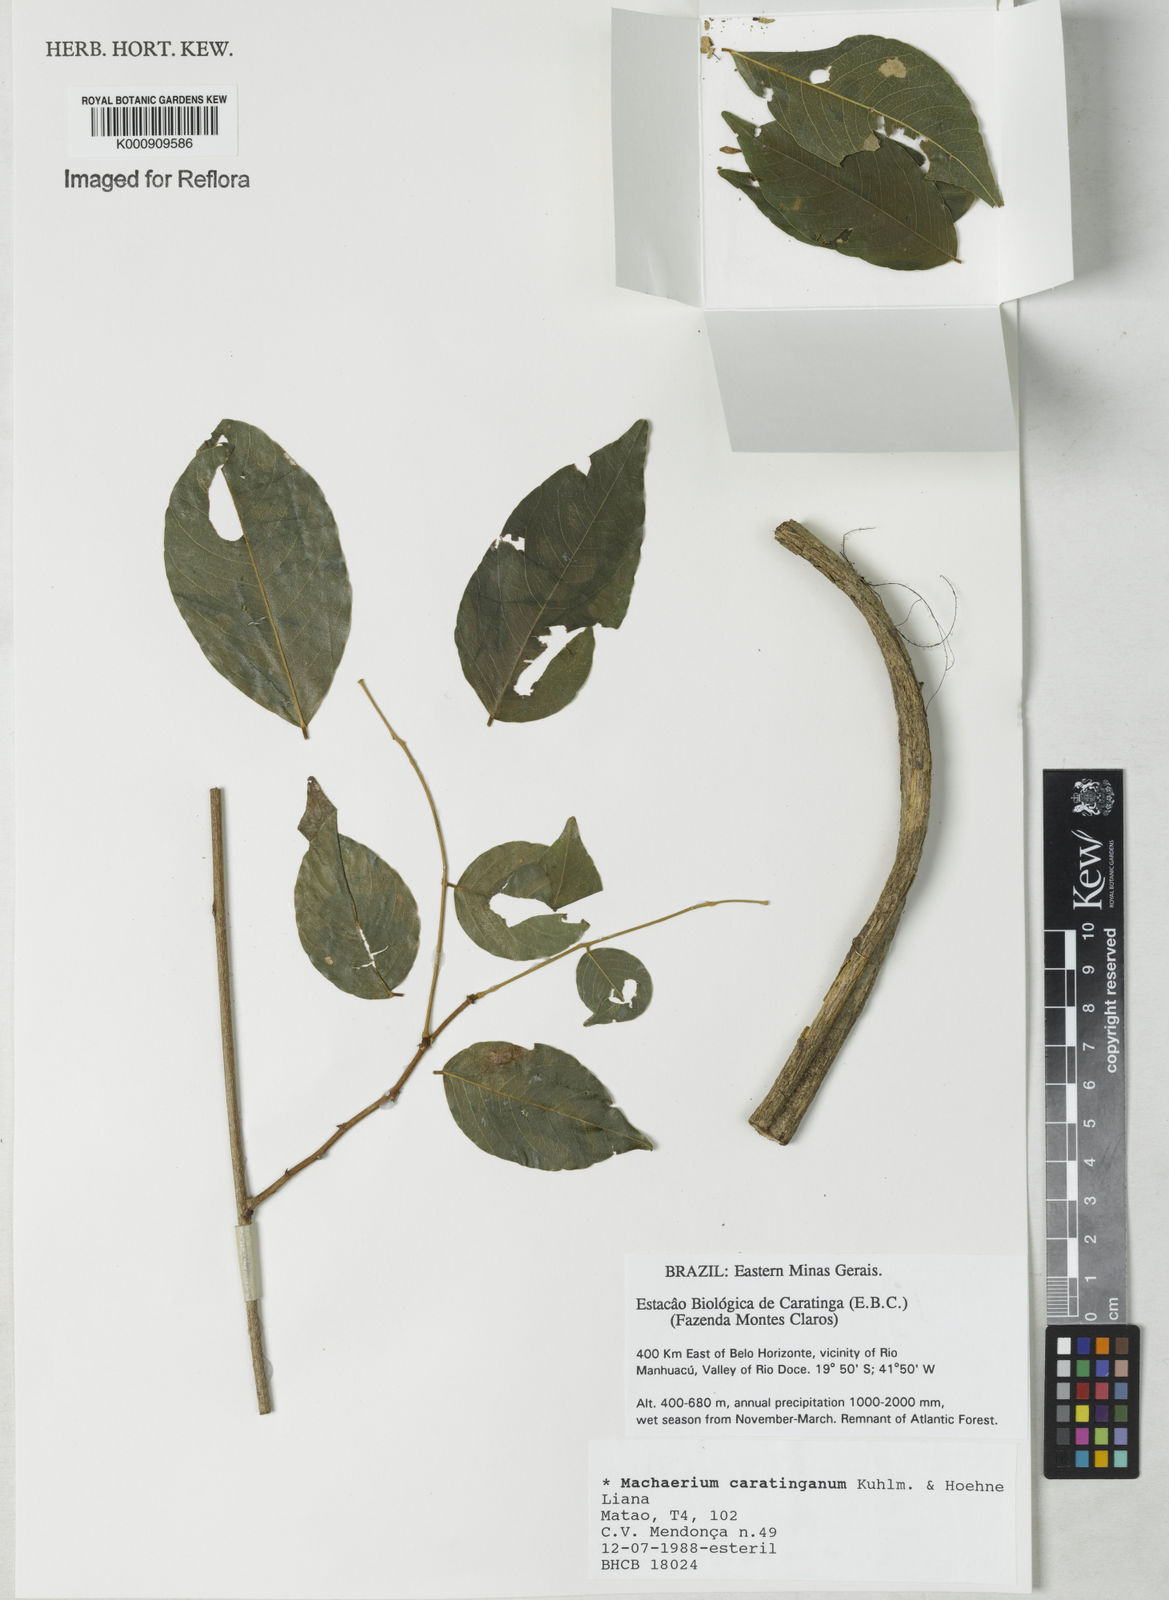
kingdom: Plantae
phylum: Tracheophyta
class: Magnoliopsida
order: Fabales
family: Fabaceae
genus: Machaerium
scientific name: Machaerium caratinganum
